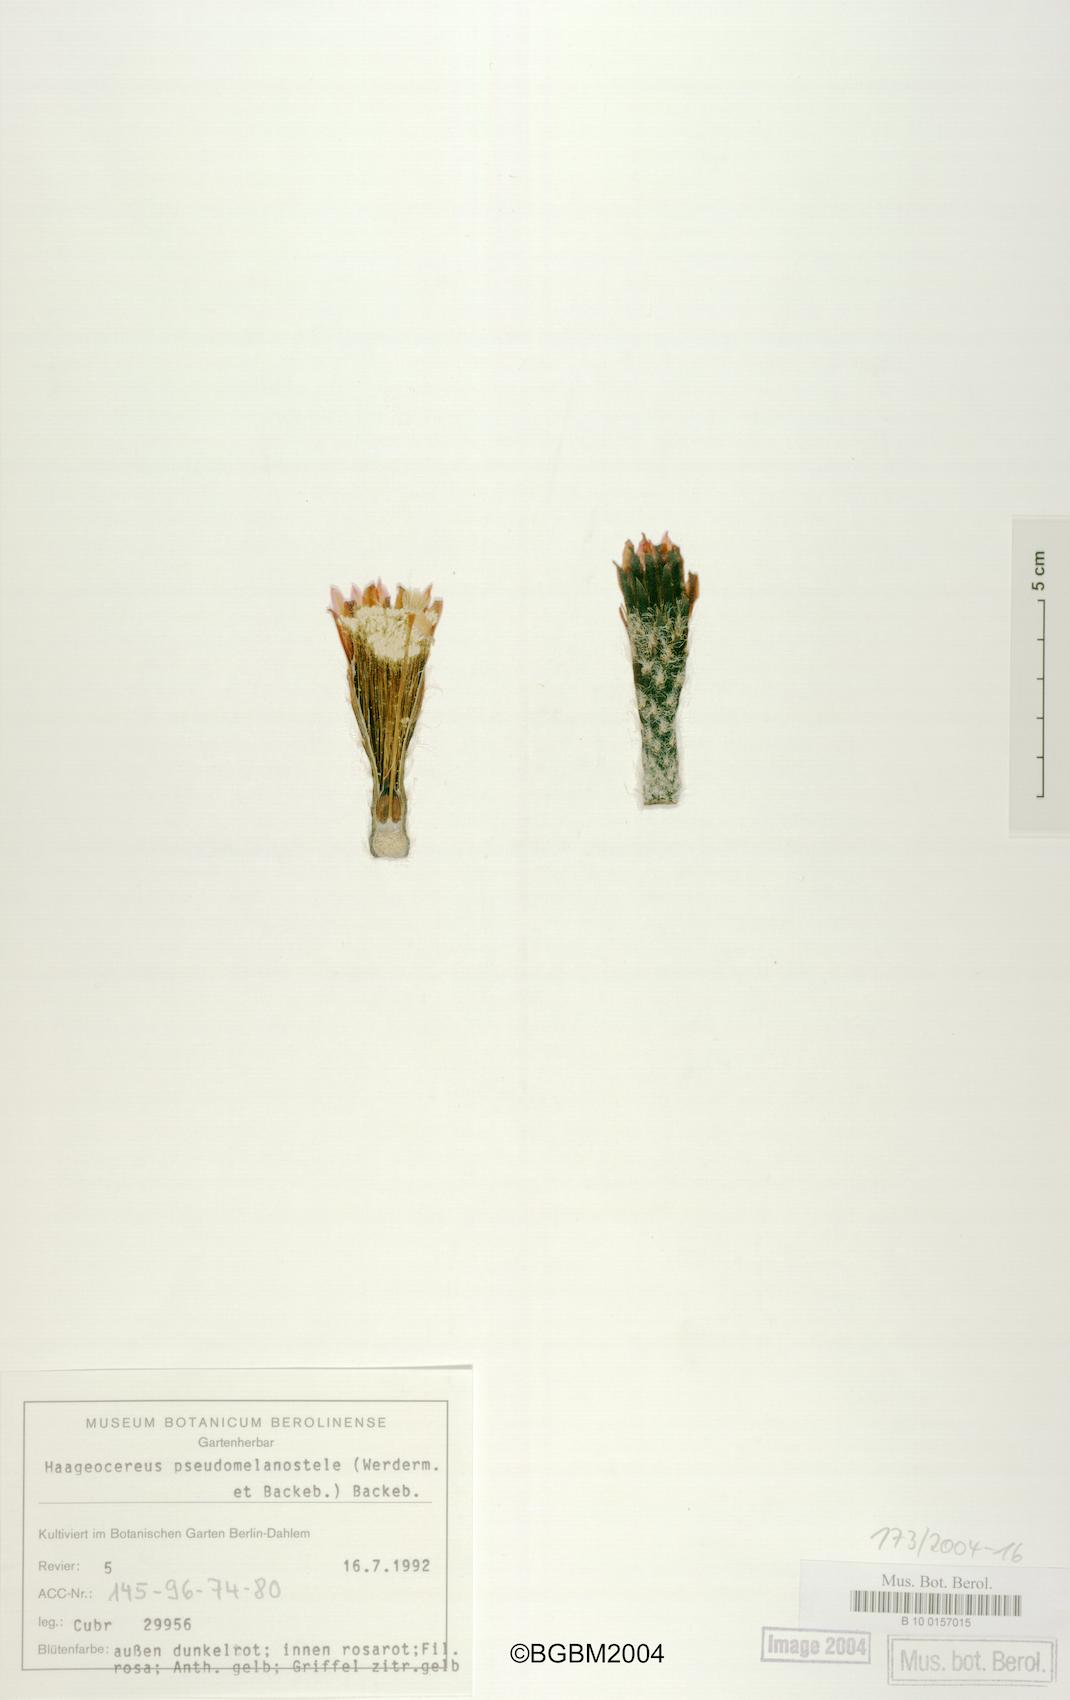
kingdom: Plantae
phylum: Tracheophyta
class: Magnoliopsida
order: Caryophyllales
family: Cactaceae
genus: Haageocereus
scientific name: Haageocereus pseudomelanostele
